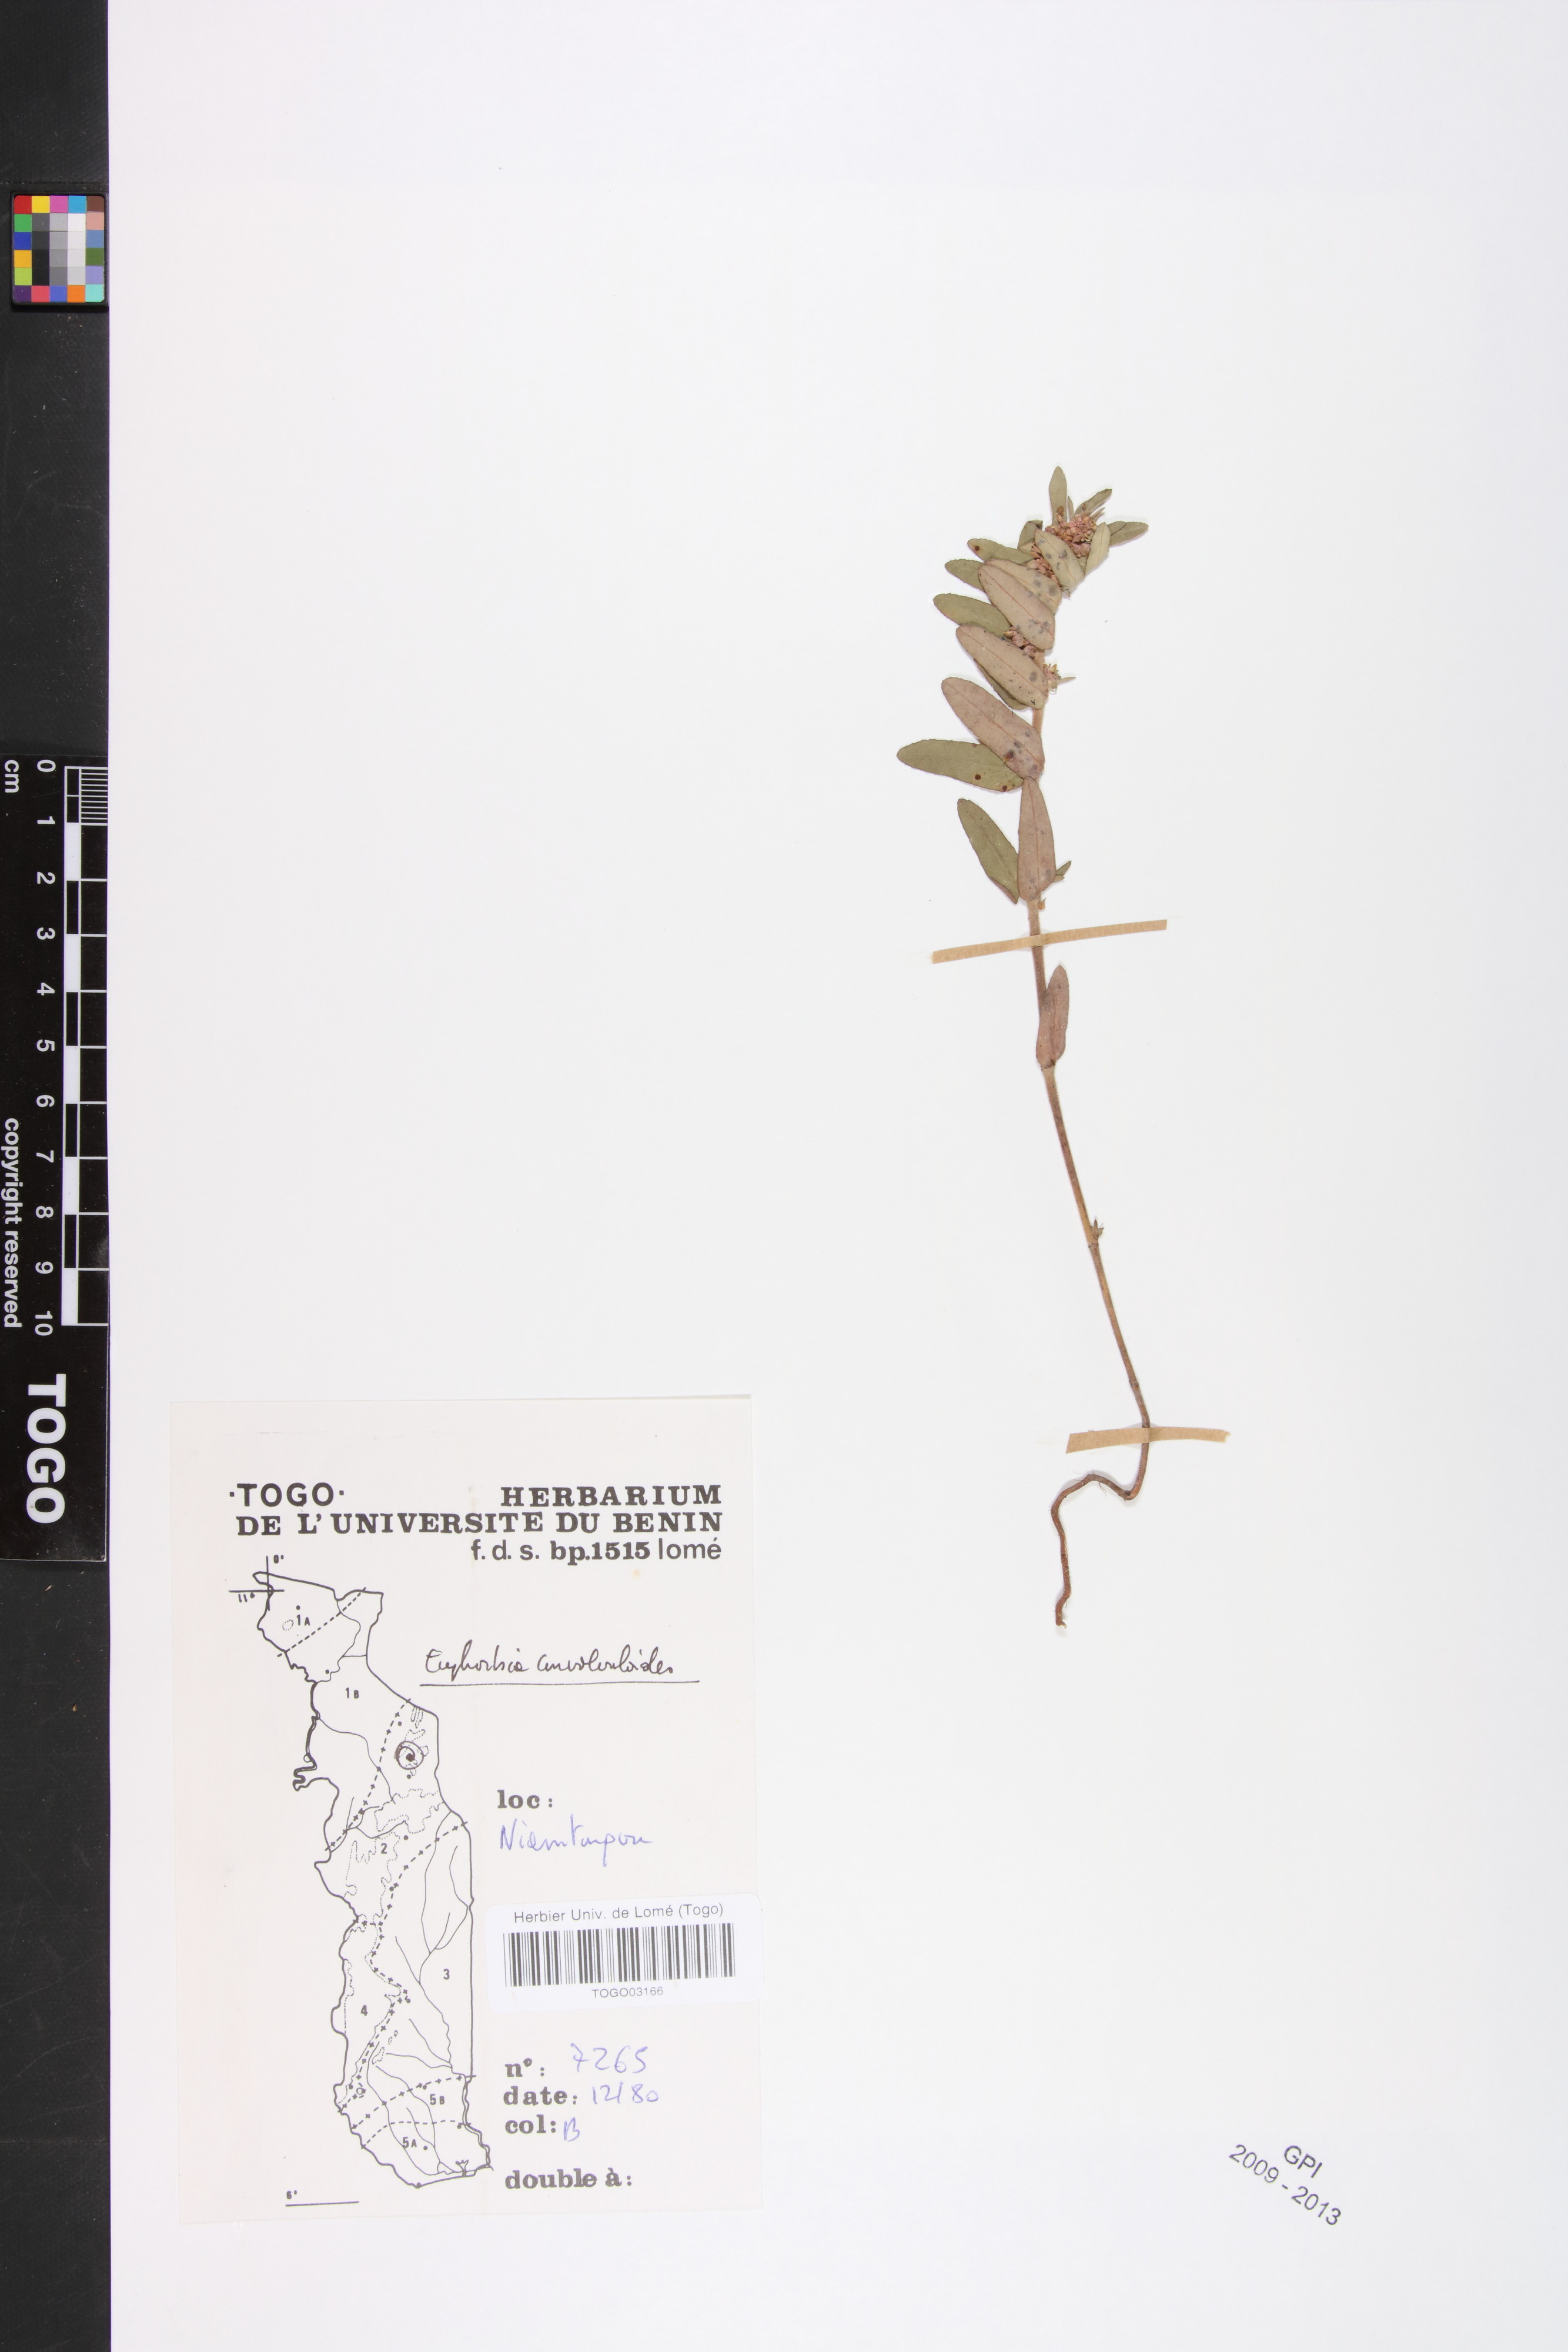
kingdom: Plantae
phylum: Tracheophyta
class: Magnoliopsida
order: Malpighiales
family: Euphorbiaceae
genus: Euphorbia
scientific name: Euphorbia convolvuloides
